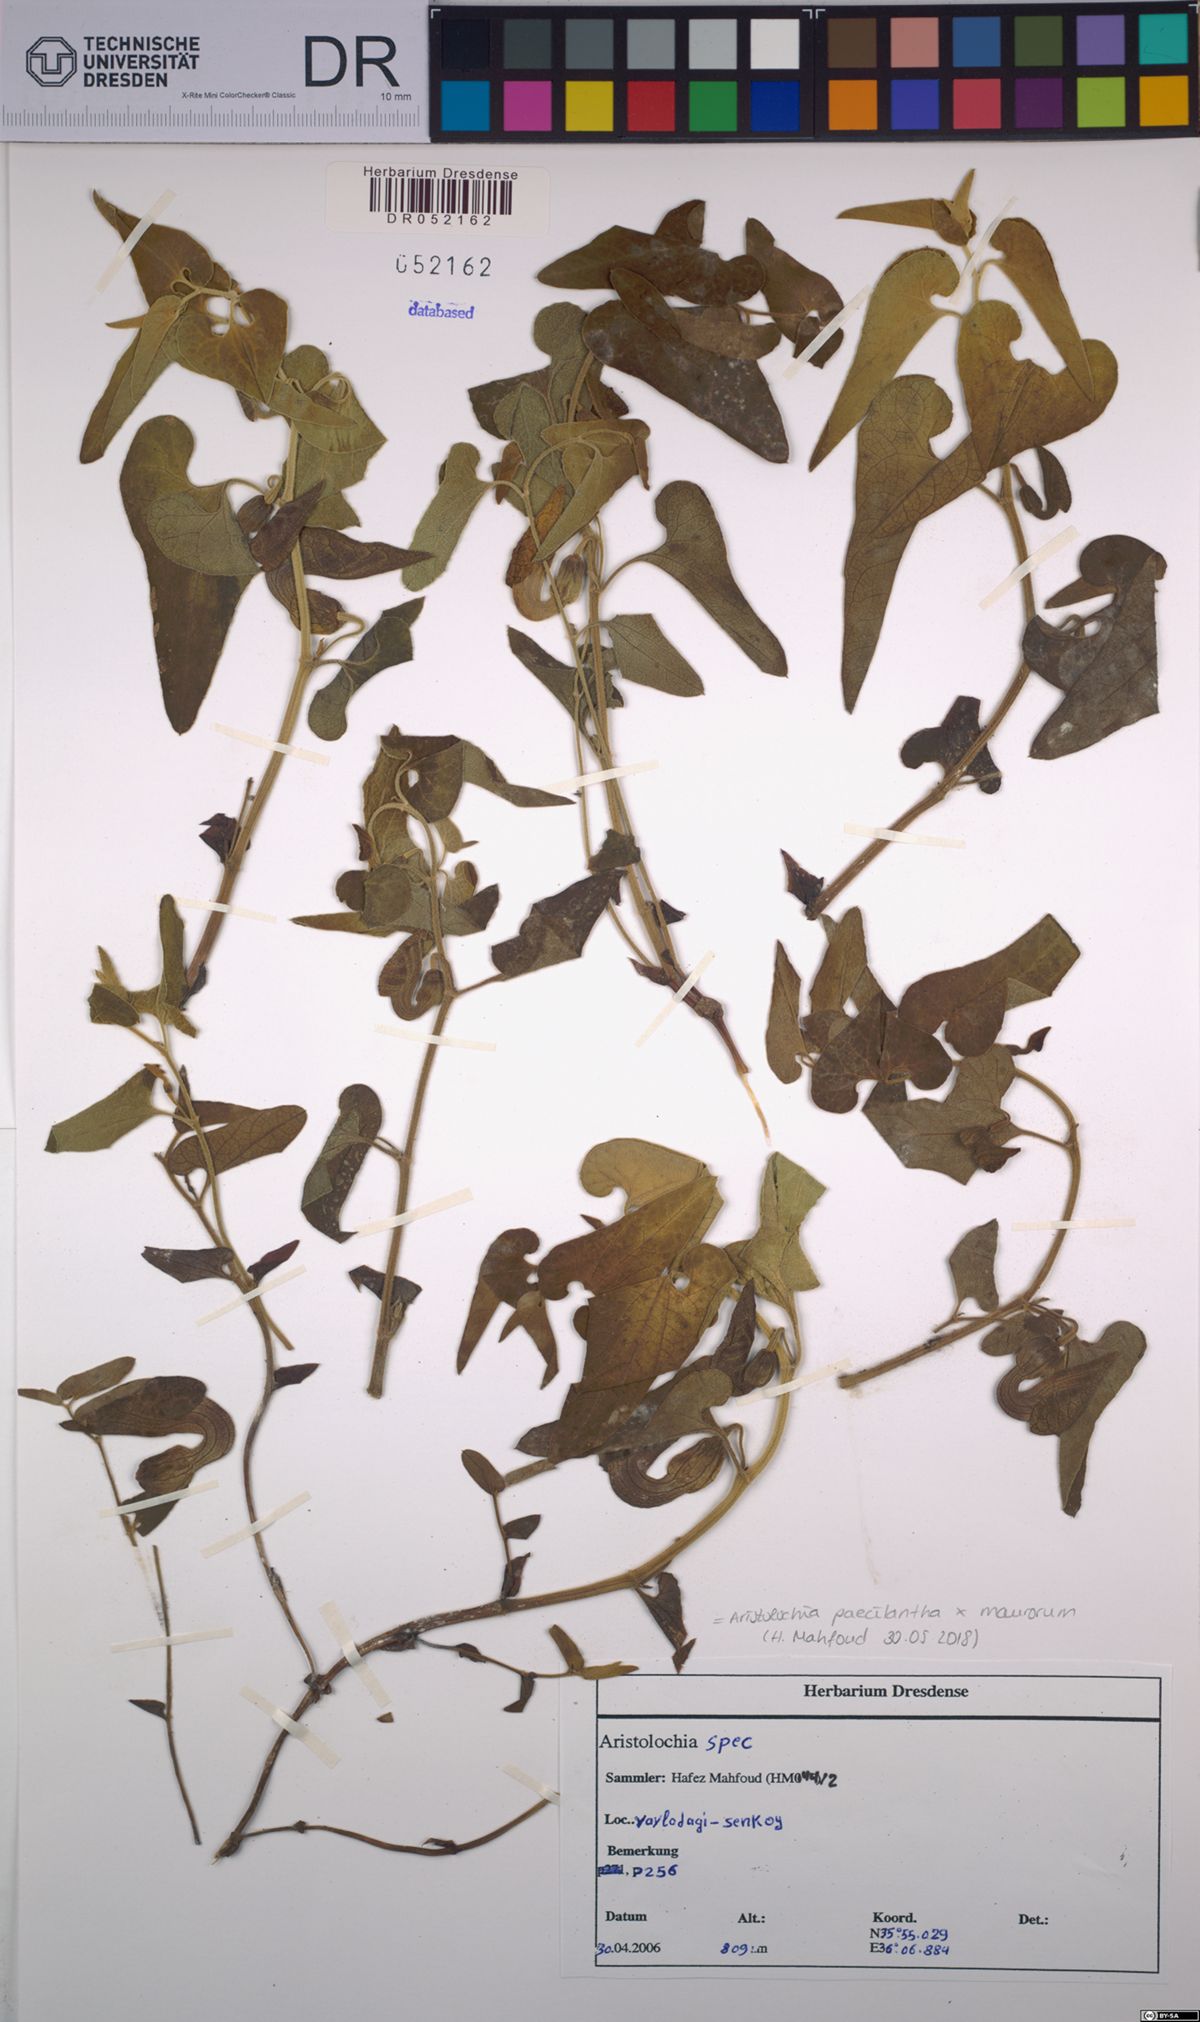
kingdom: Plantae
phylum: Tracheophyta
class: Magnoliopsida
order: Piperales
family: Aristolochiaceae
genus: Aristolochia
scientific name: Aristolochia paecilantha
